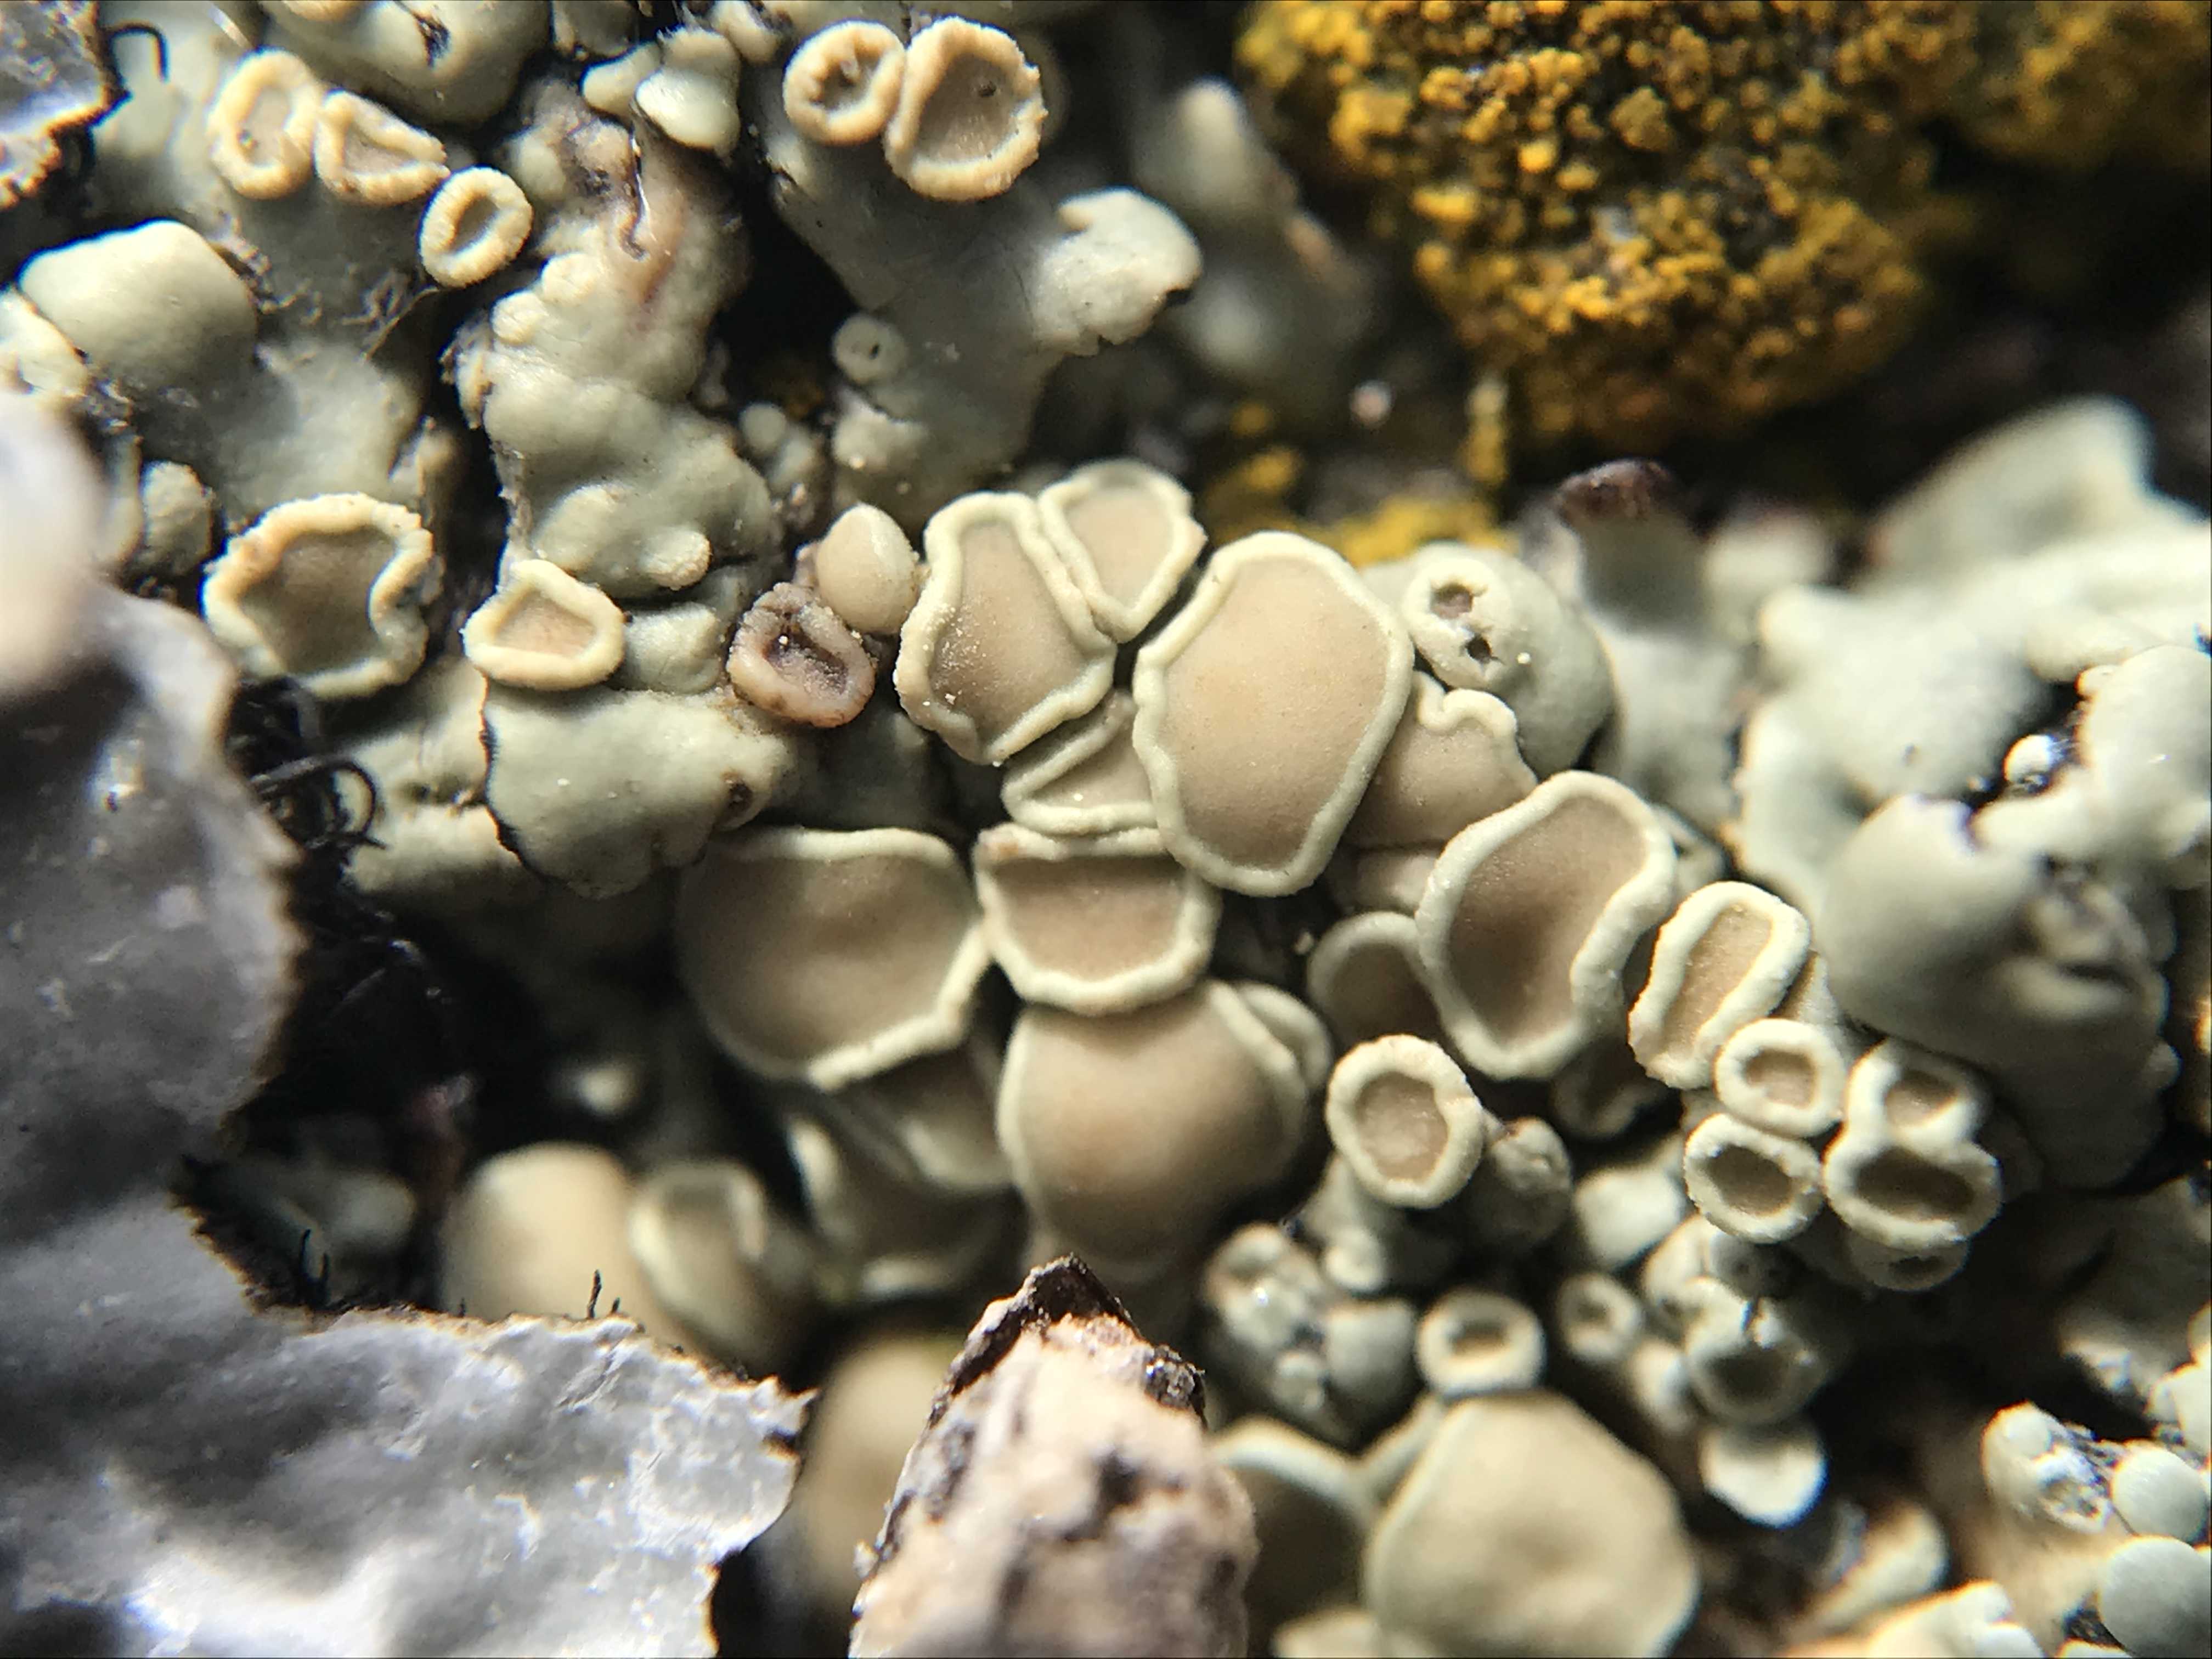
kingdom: Fungi
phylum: Ascomycota
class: Lecanoromycetes
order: Lecanorales
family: Lecanoraceae
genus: Protoparmeliopsis
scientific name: Protoparmeliopsis muralis
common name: randfliget kantskivelav
